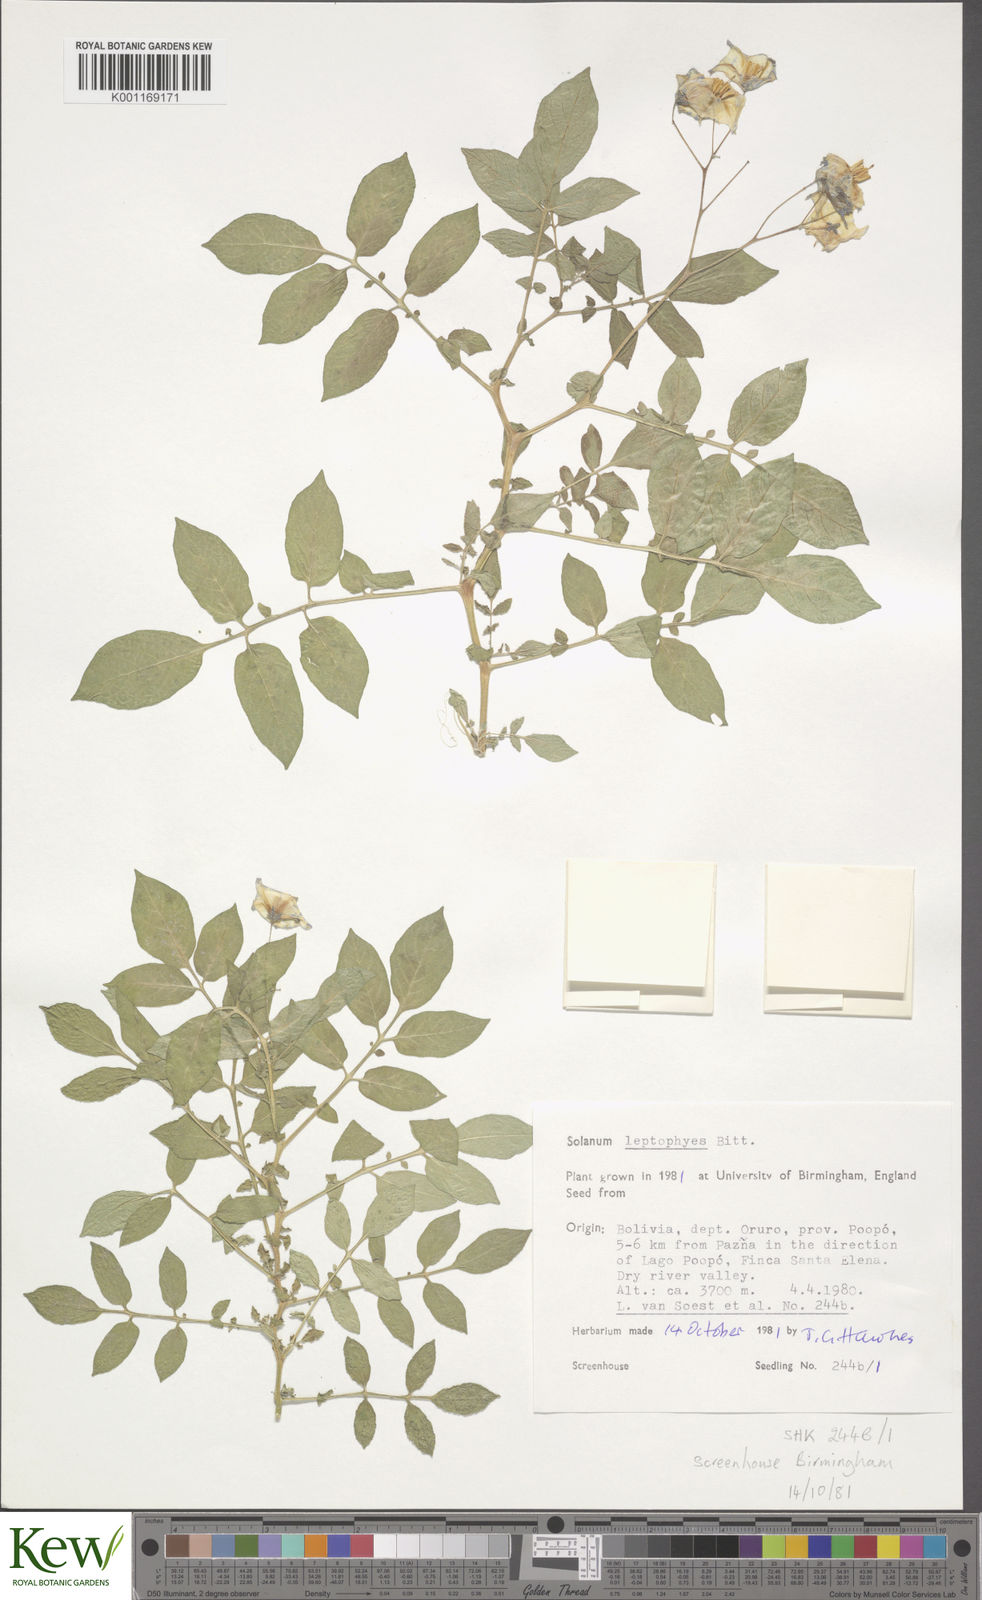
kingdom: Plantae
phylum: Tracheophyta
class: Magnoliopsida
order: Solanales
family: Solanaceae
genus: Solanum
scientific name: Solanum brevicaule
